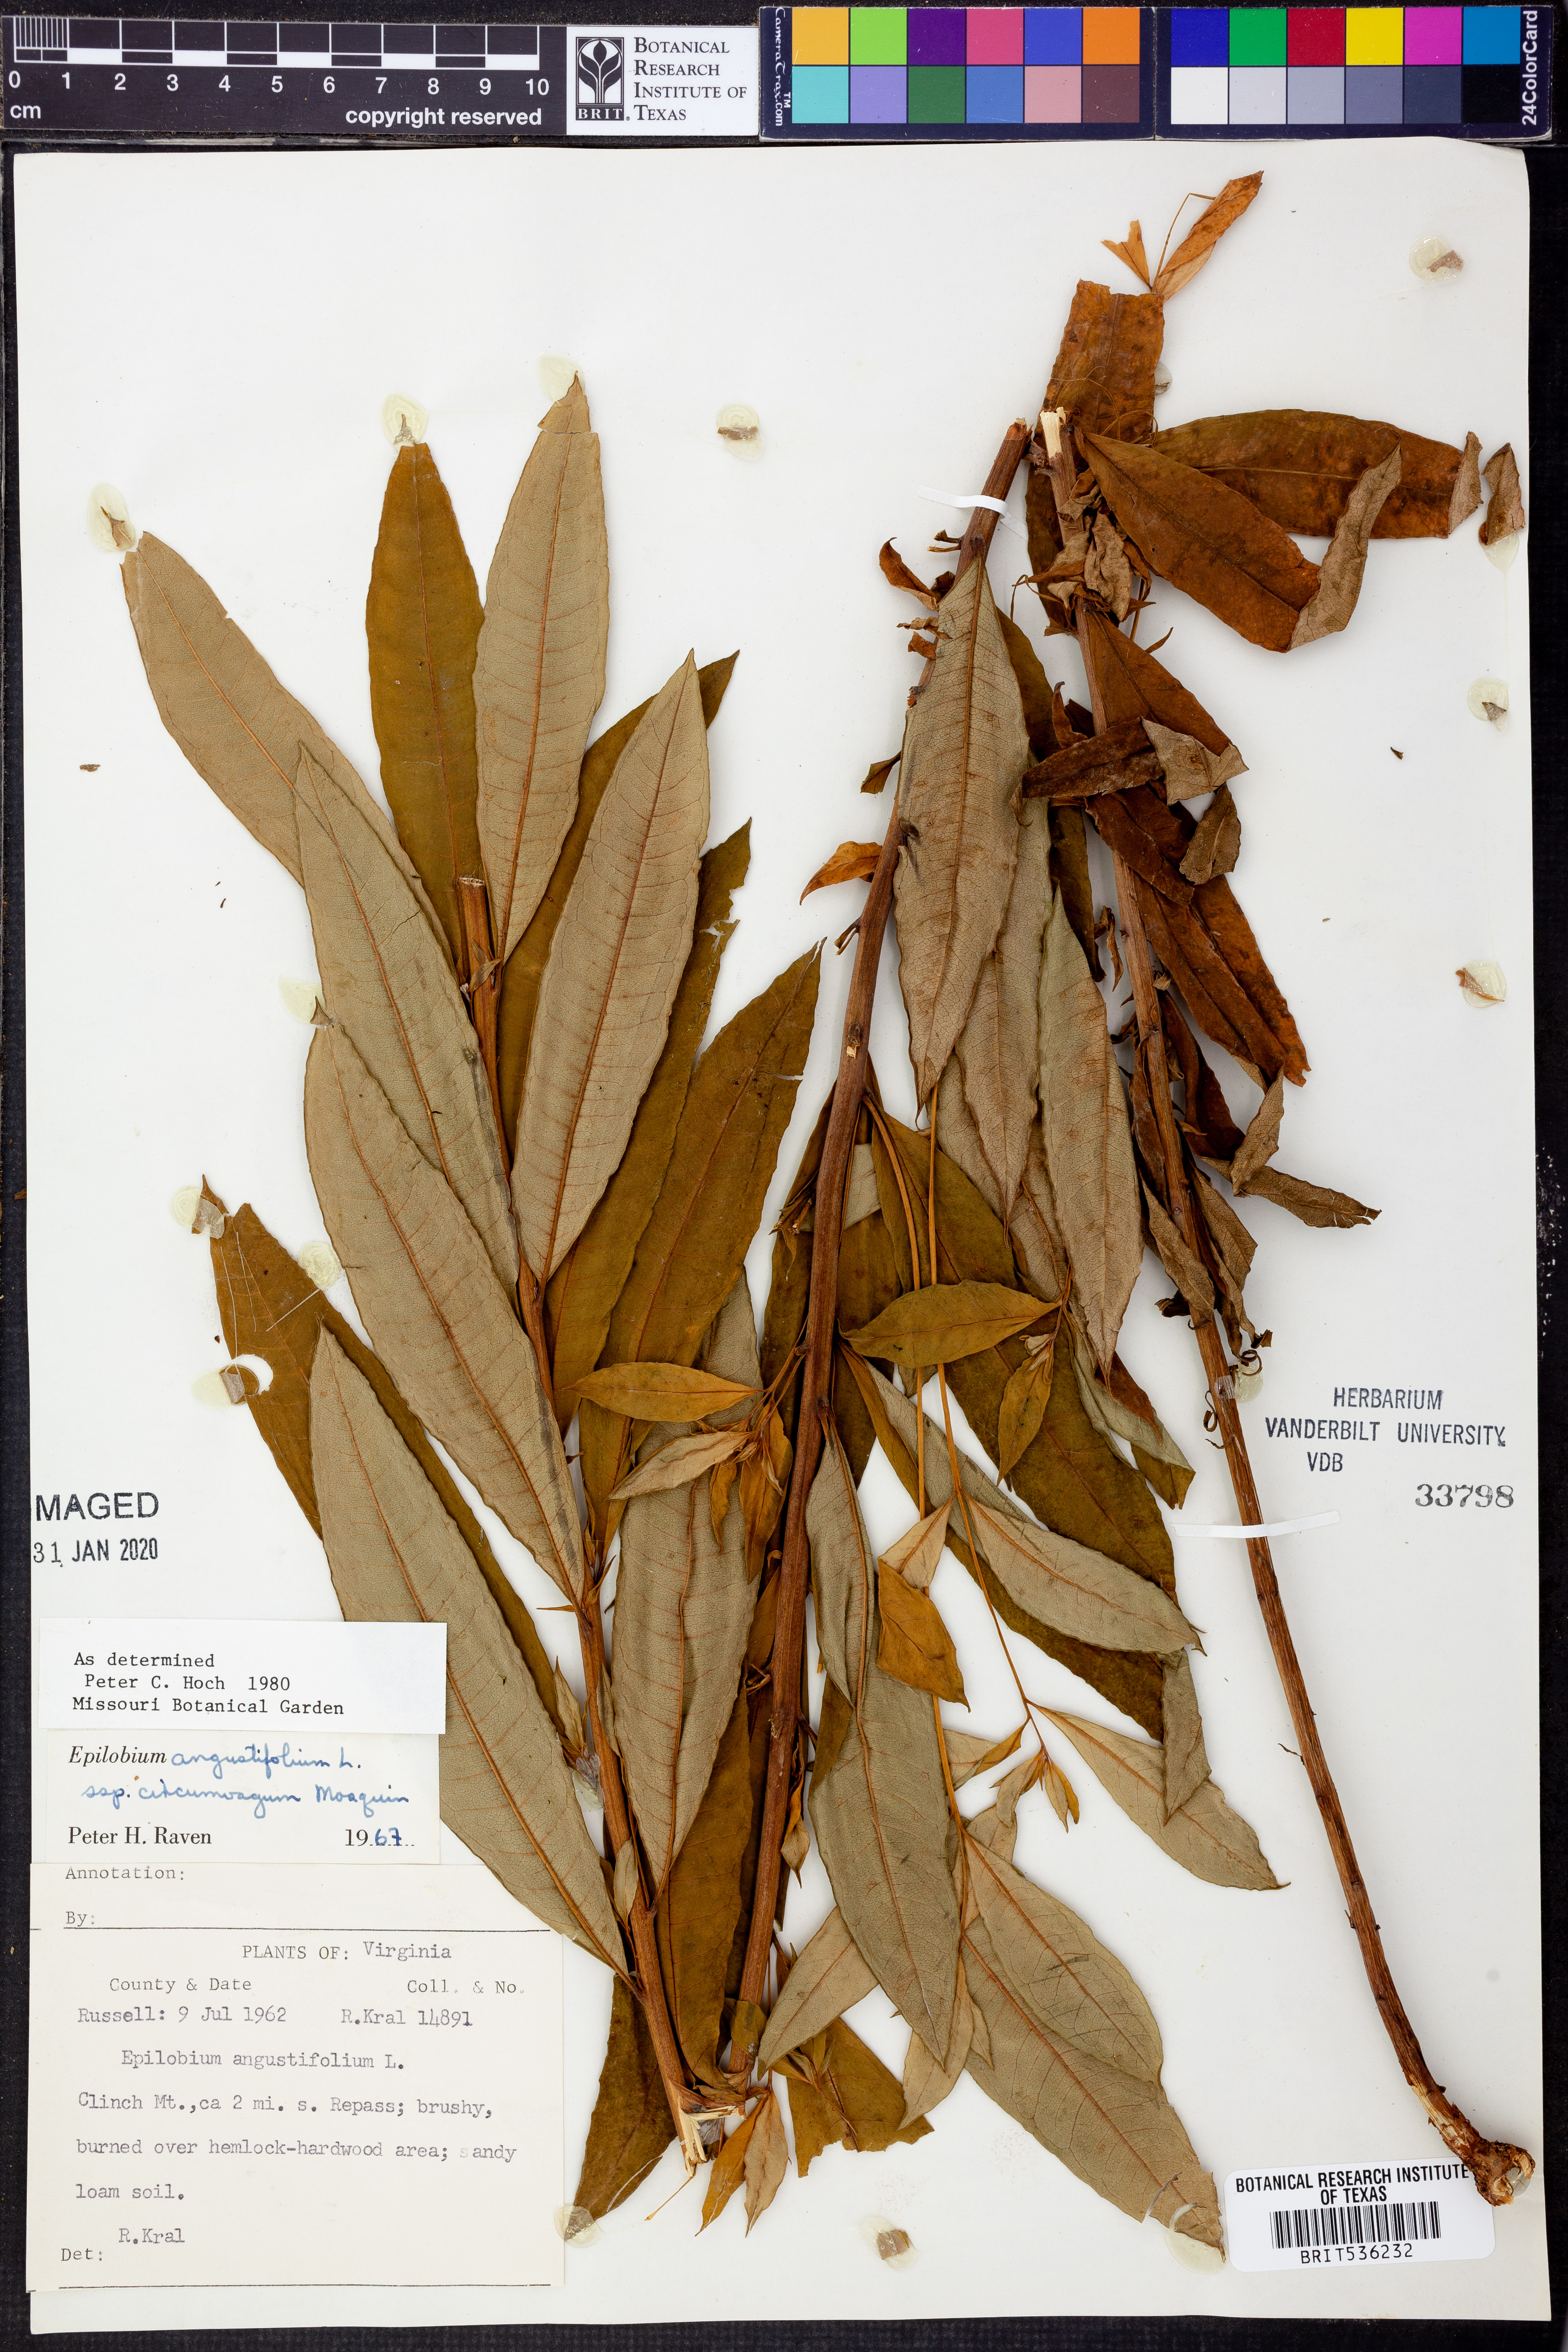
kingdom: Plantae
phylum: Tracheophyta
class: Magnoliopsida
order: Myrtales
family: Onagraceae
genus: Chamaenerion
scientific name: Chamaenerion angustifolium
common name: Fireweed
